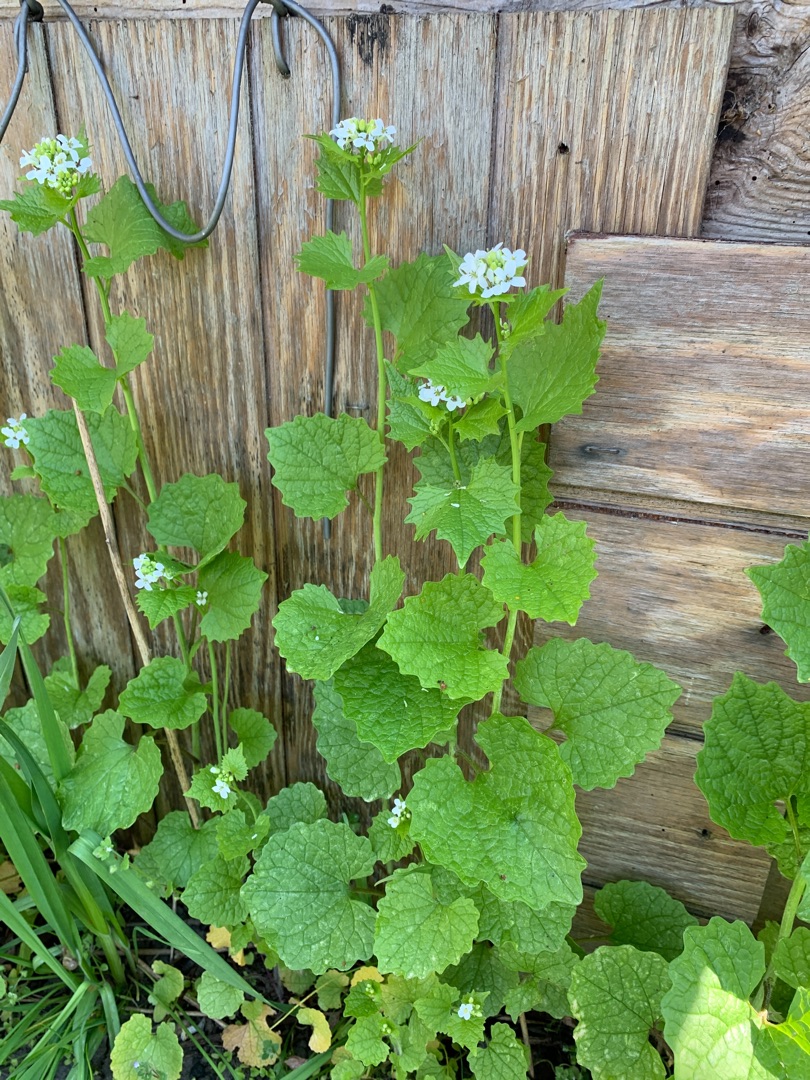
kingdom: Plantae
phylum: Tracheophyta
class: Magnoliopsida
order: Brassicales
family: Brassicaceae
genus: Alliaria
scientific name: Alliaria petiolata
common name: Løgkarse
